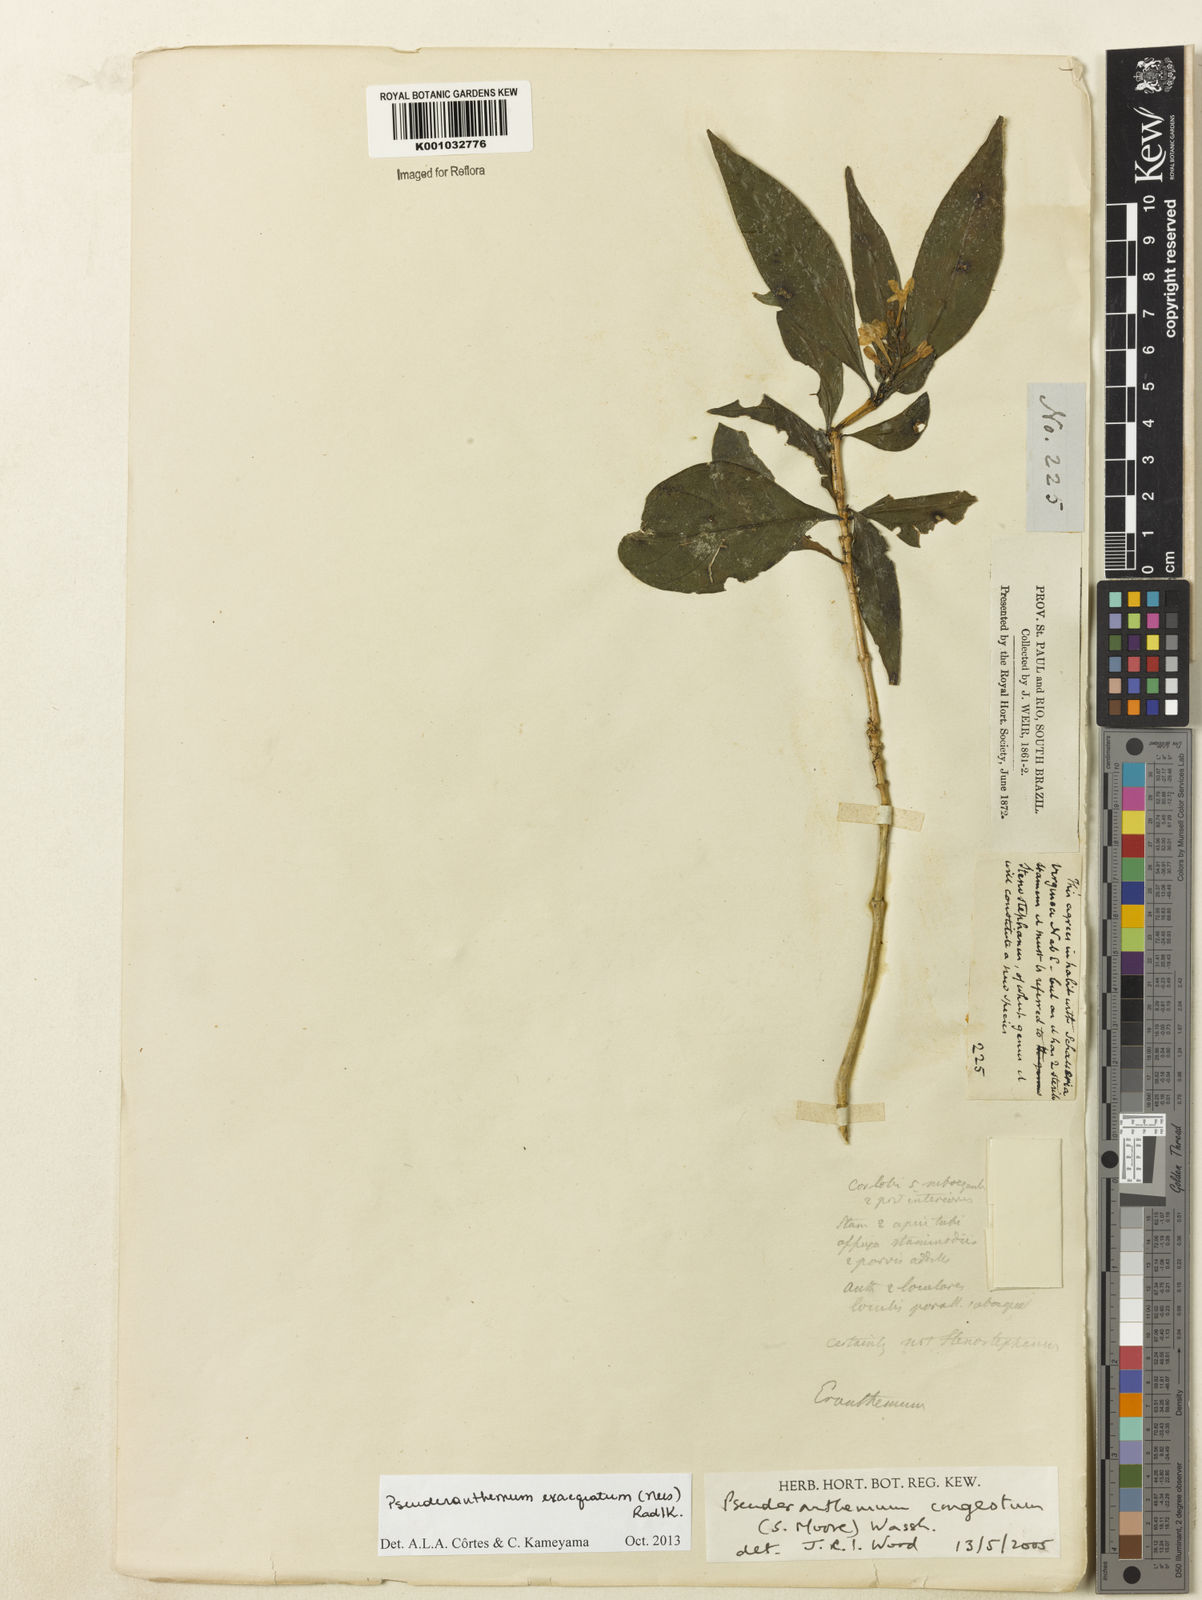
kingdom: Plantae
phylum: Tracheophyta
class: Magnoliopsida
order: Lamiales
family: Acanthaceae
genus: Pseuderanthemum
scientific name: Pseuderanthemum exaequatum
